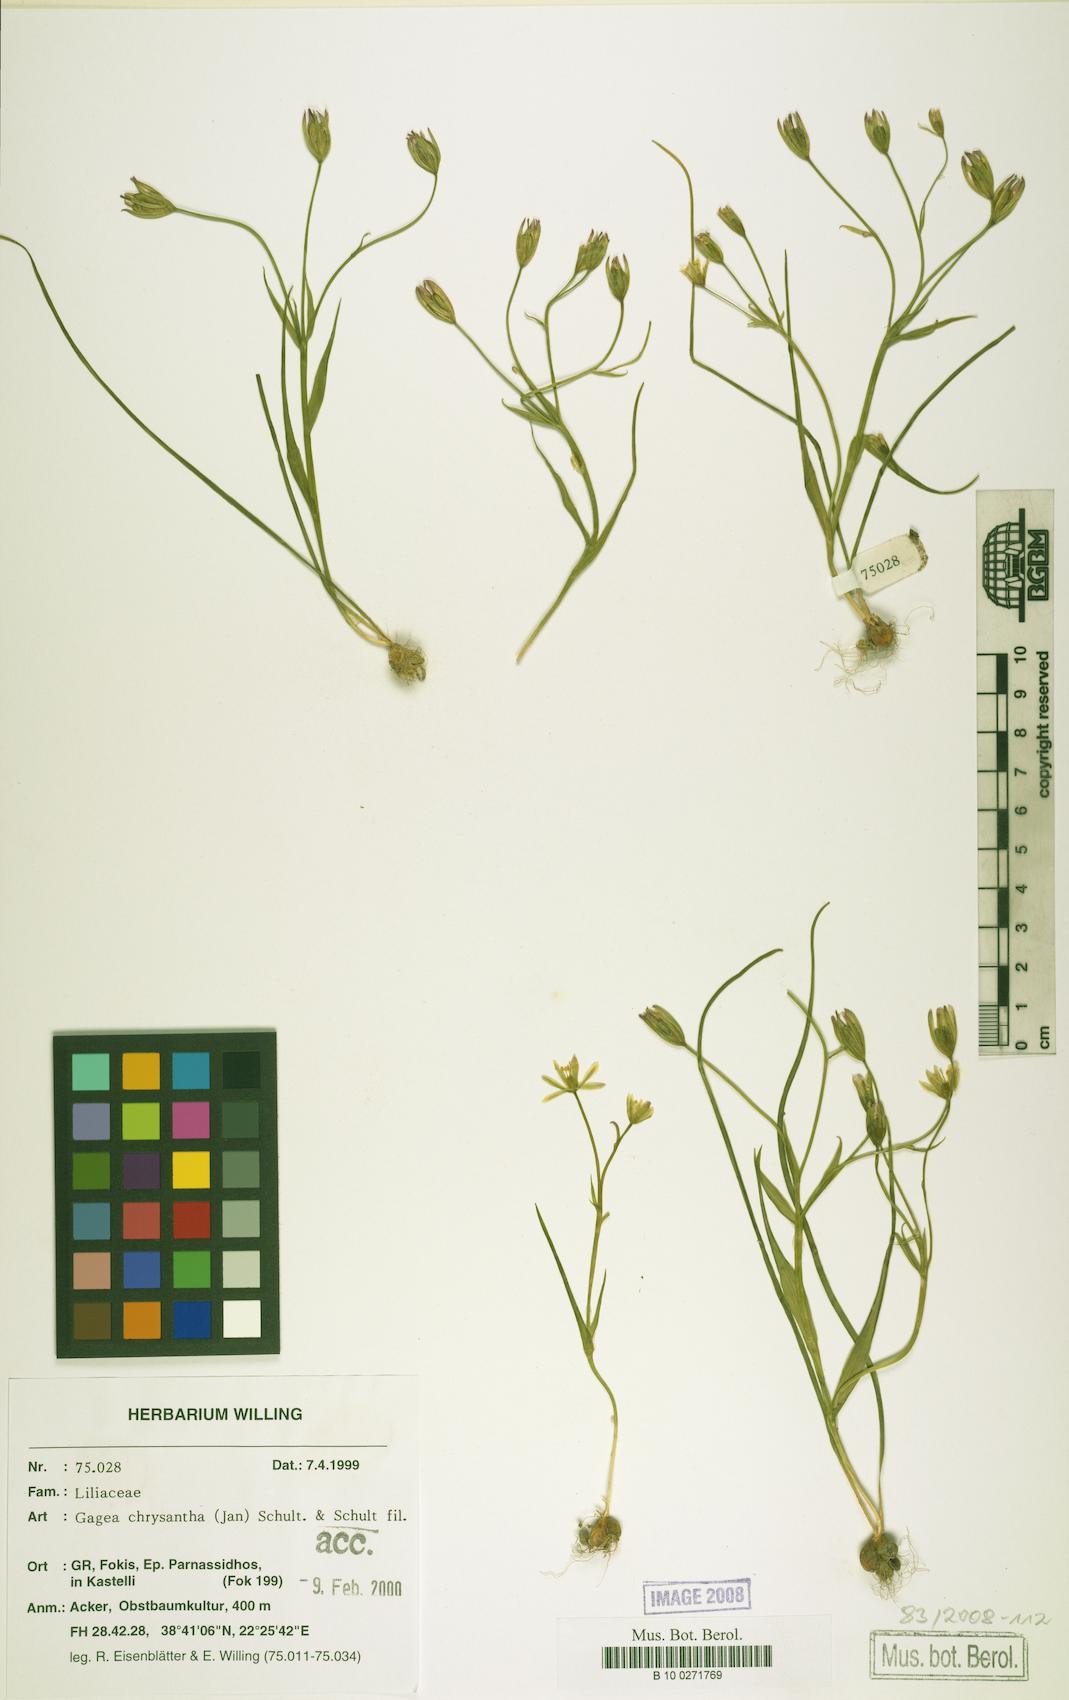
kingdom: Plantae
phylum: Tracheophyta
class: Liliopsida
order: Liliales
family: Liliaceae
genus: Gagea
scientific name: Gagea chrysantha
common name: Golden gagea
